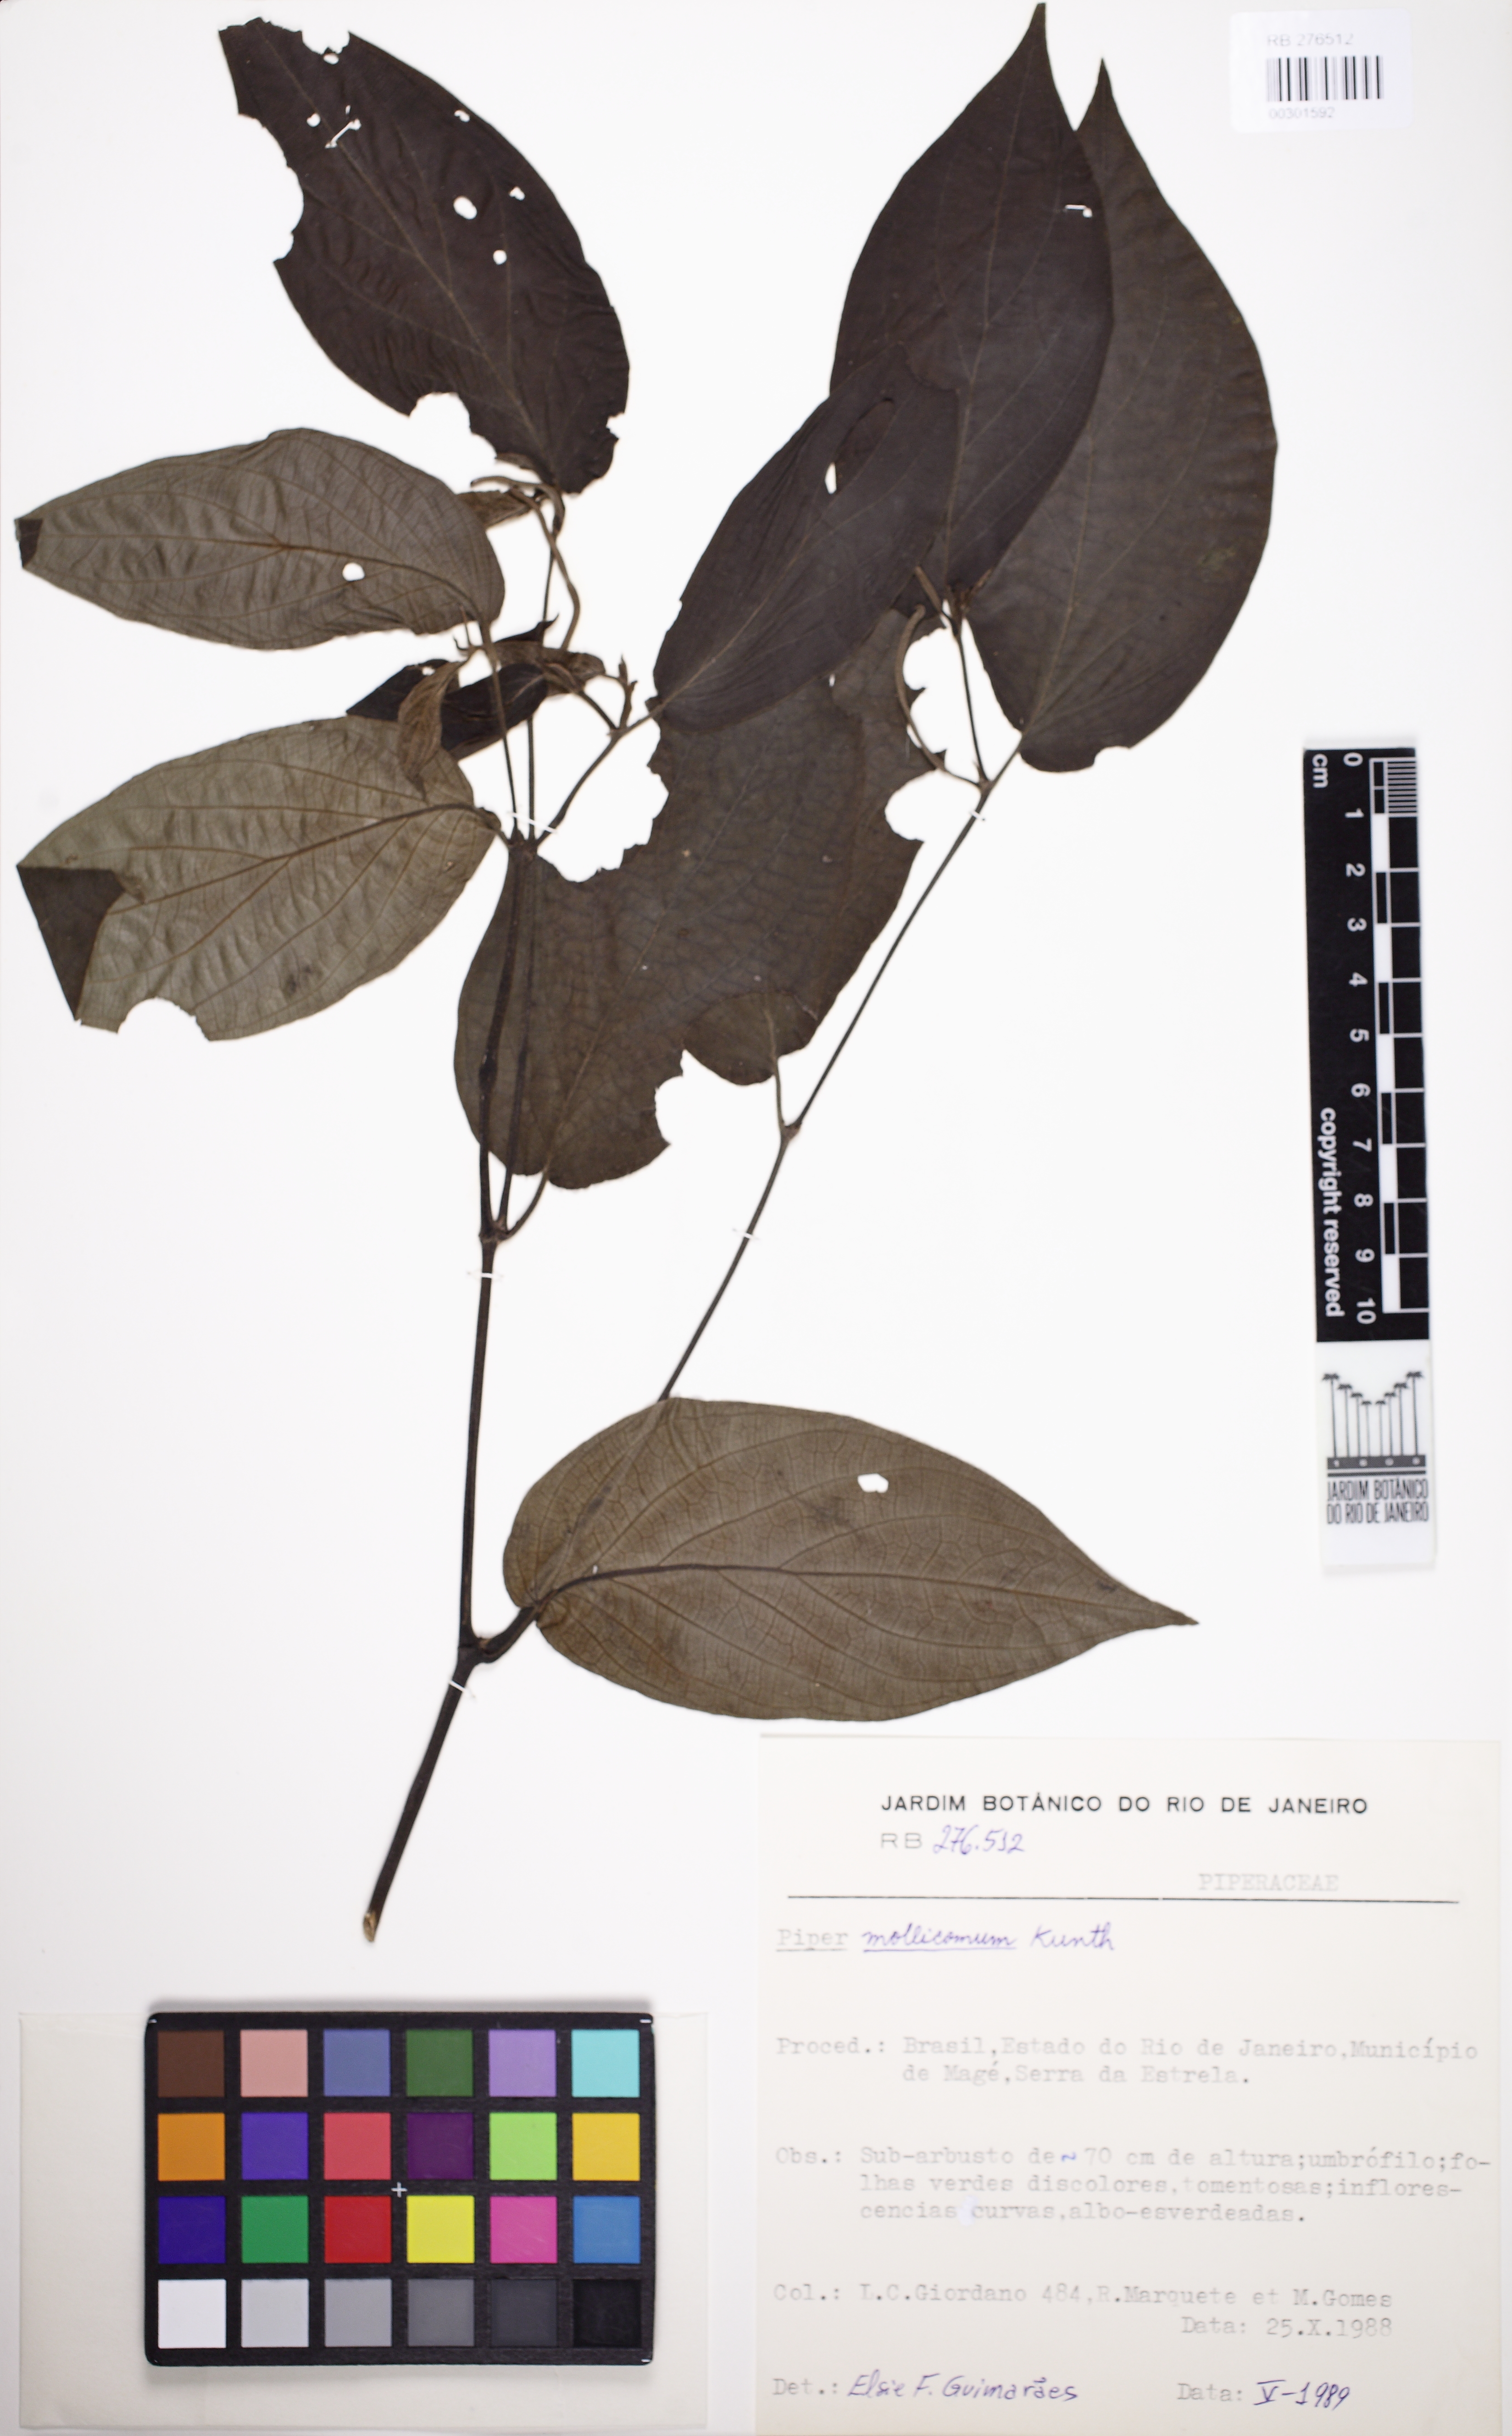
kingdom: Plantae
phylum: Tracheophyta
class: Magnoliopsida
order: Piperales
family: Piperaceae
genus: Piper
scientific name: Piper mollicomum
